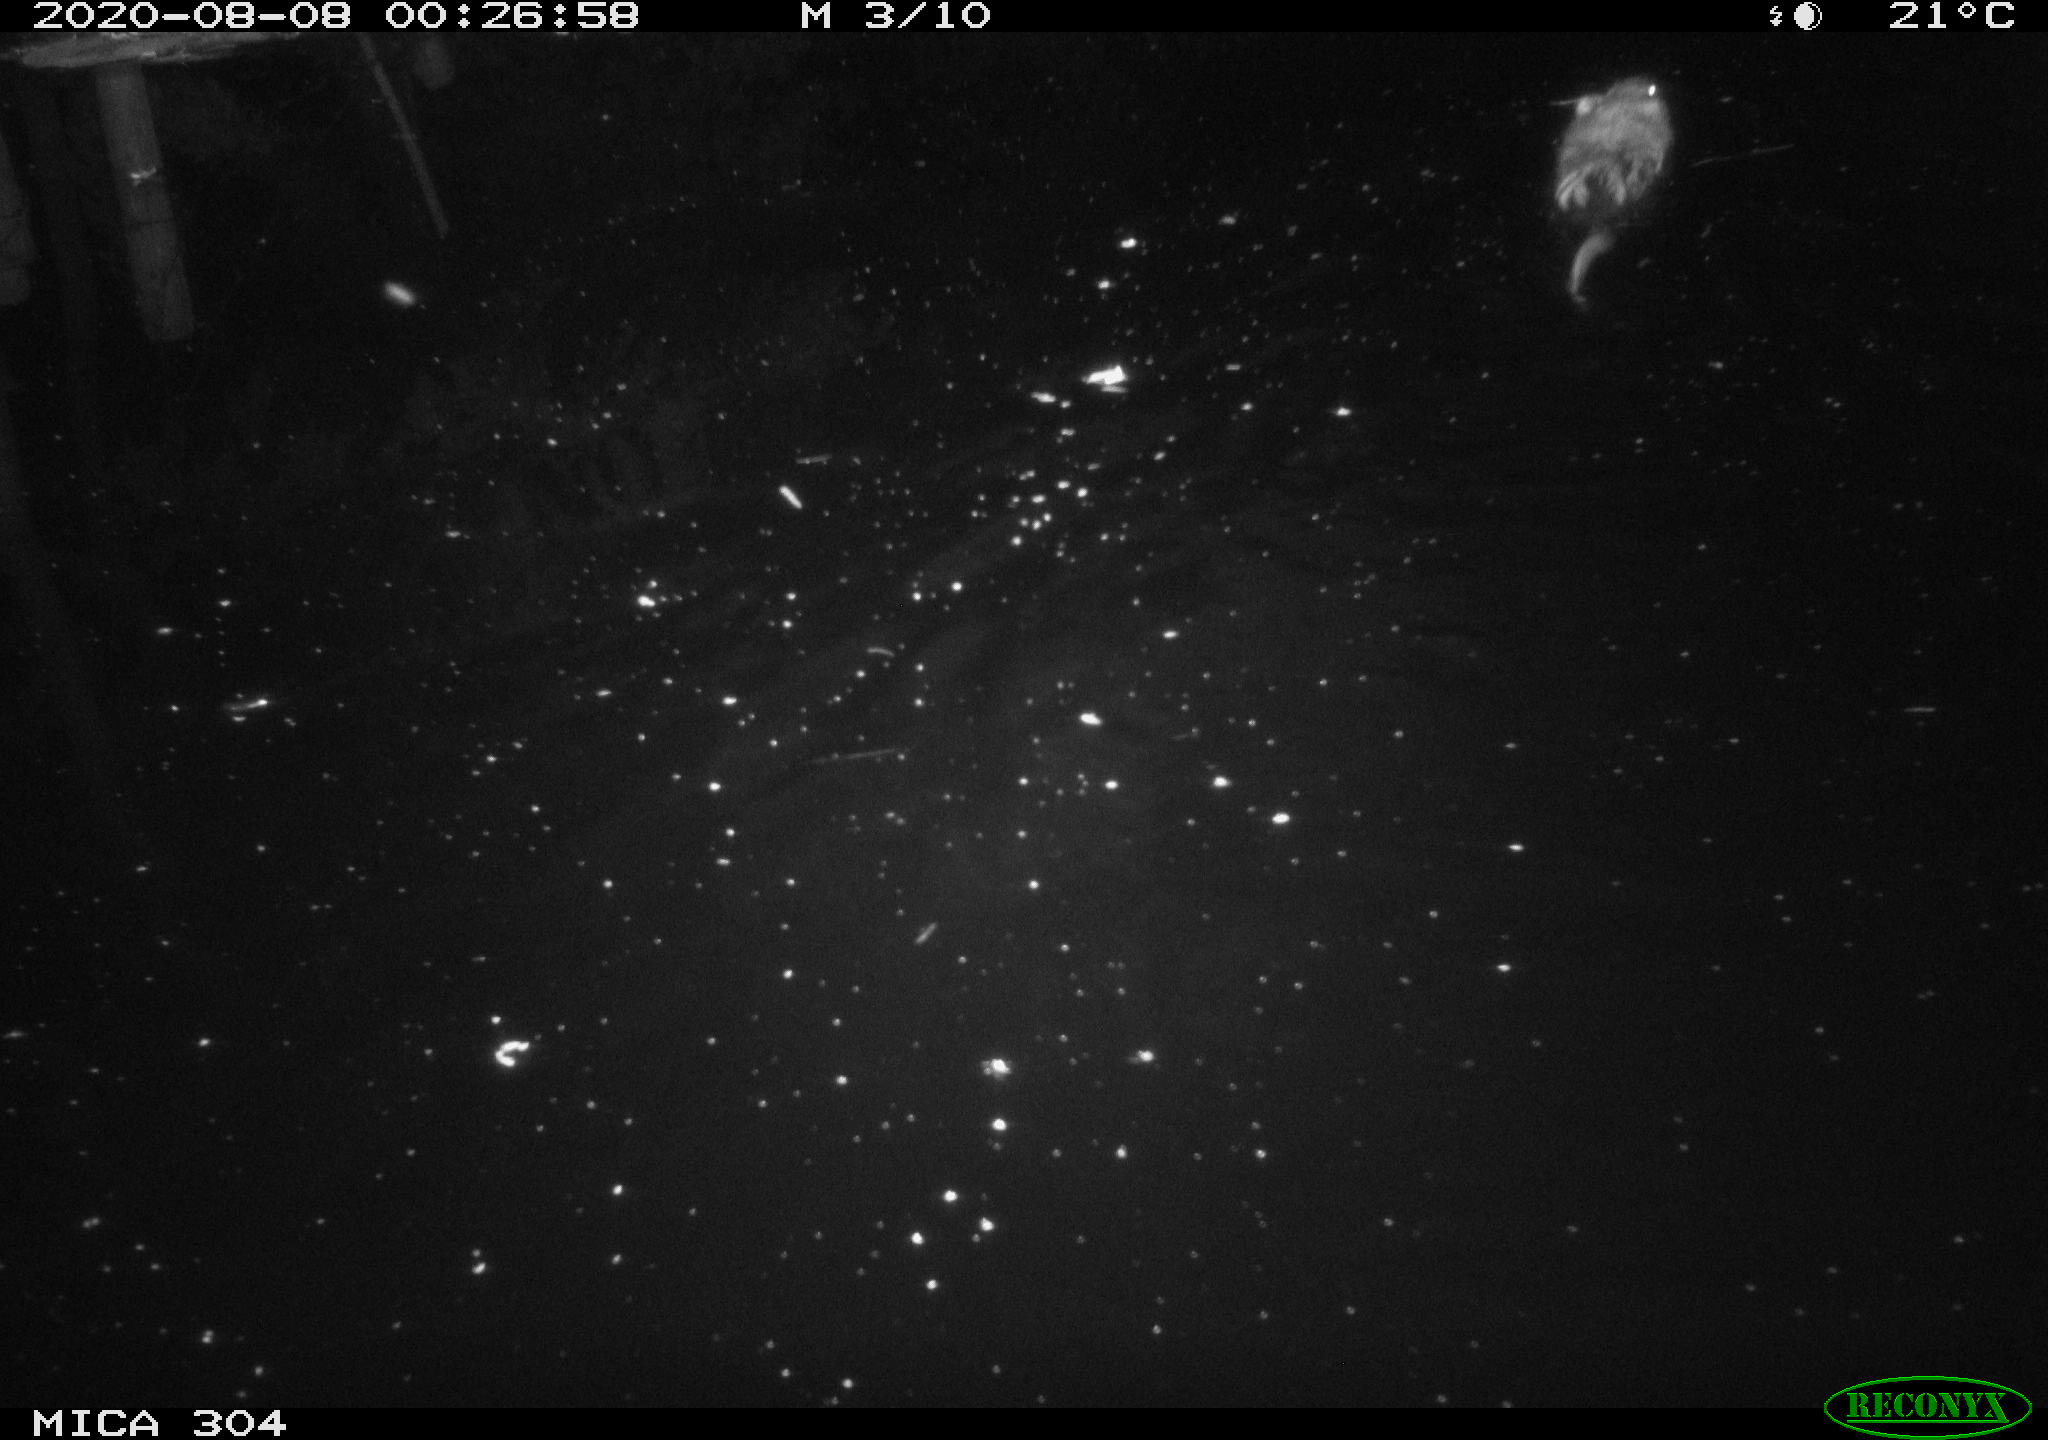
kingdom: Animalia
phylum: Chordata
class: Mammalia
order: Rodentia
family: Cricetidae
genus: Ondatra
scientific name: Ondatra zibethicus
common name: Muskrat
